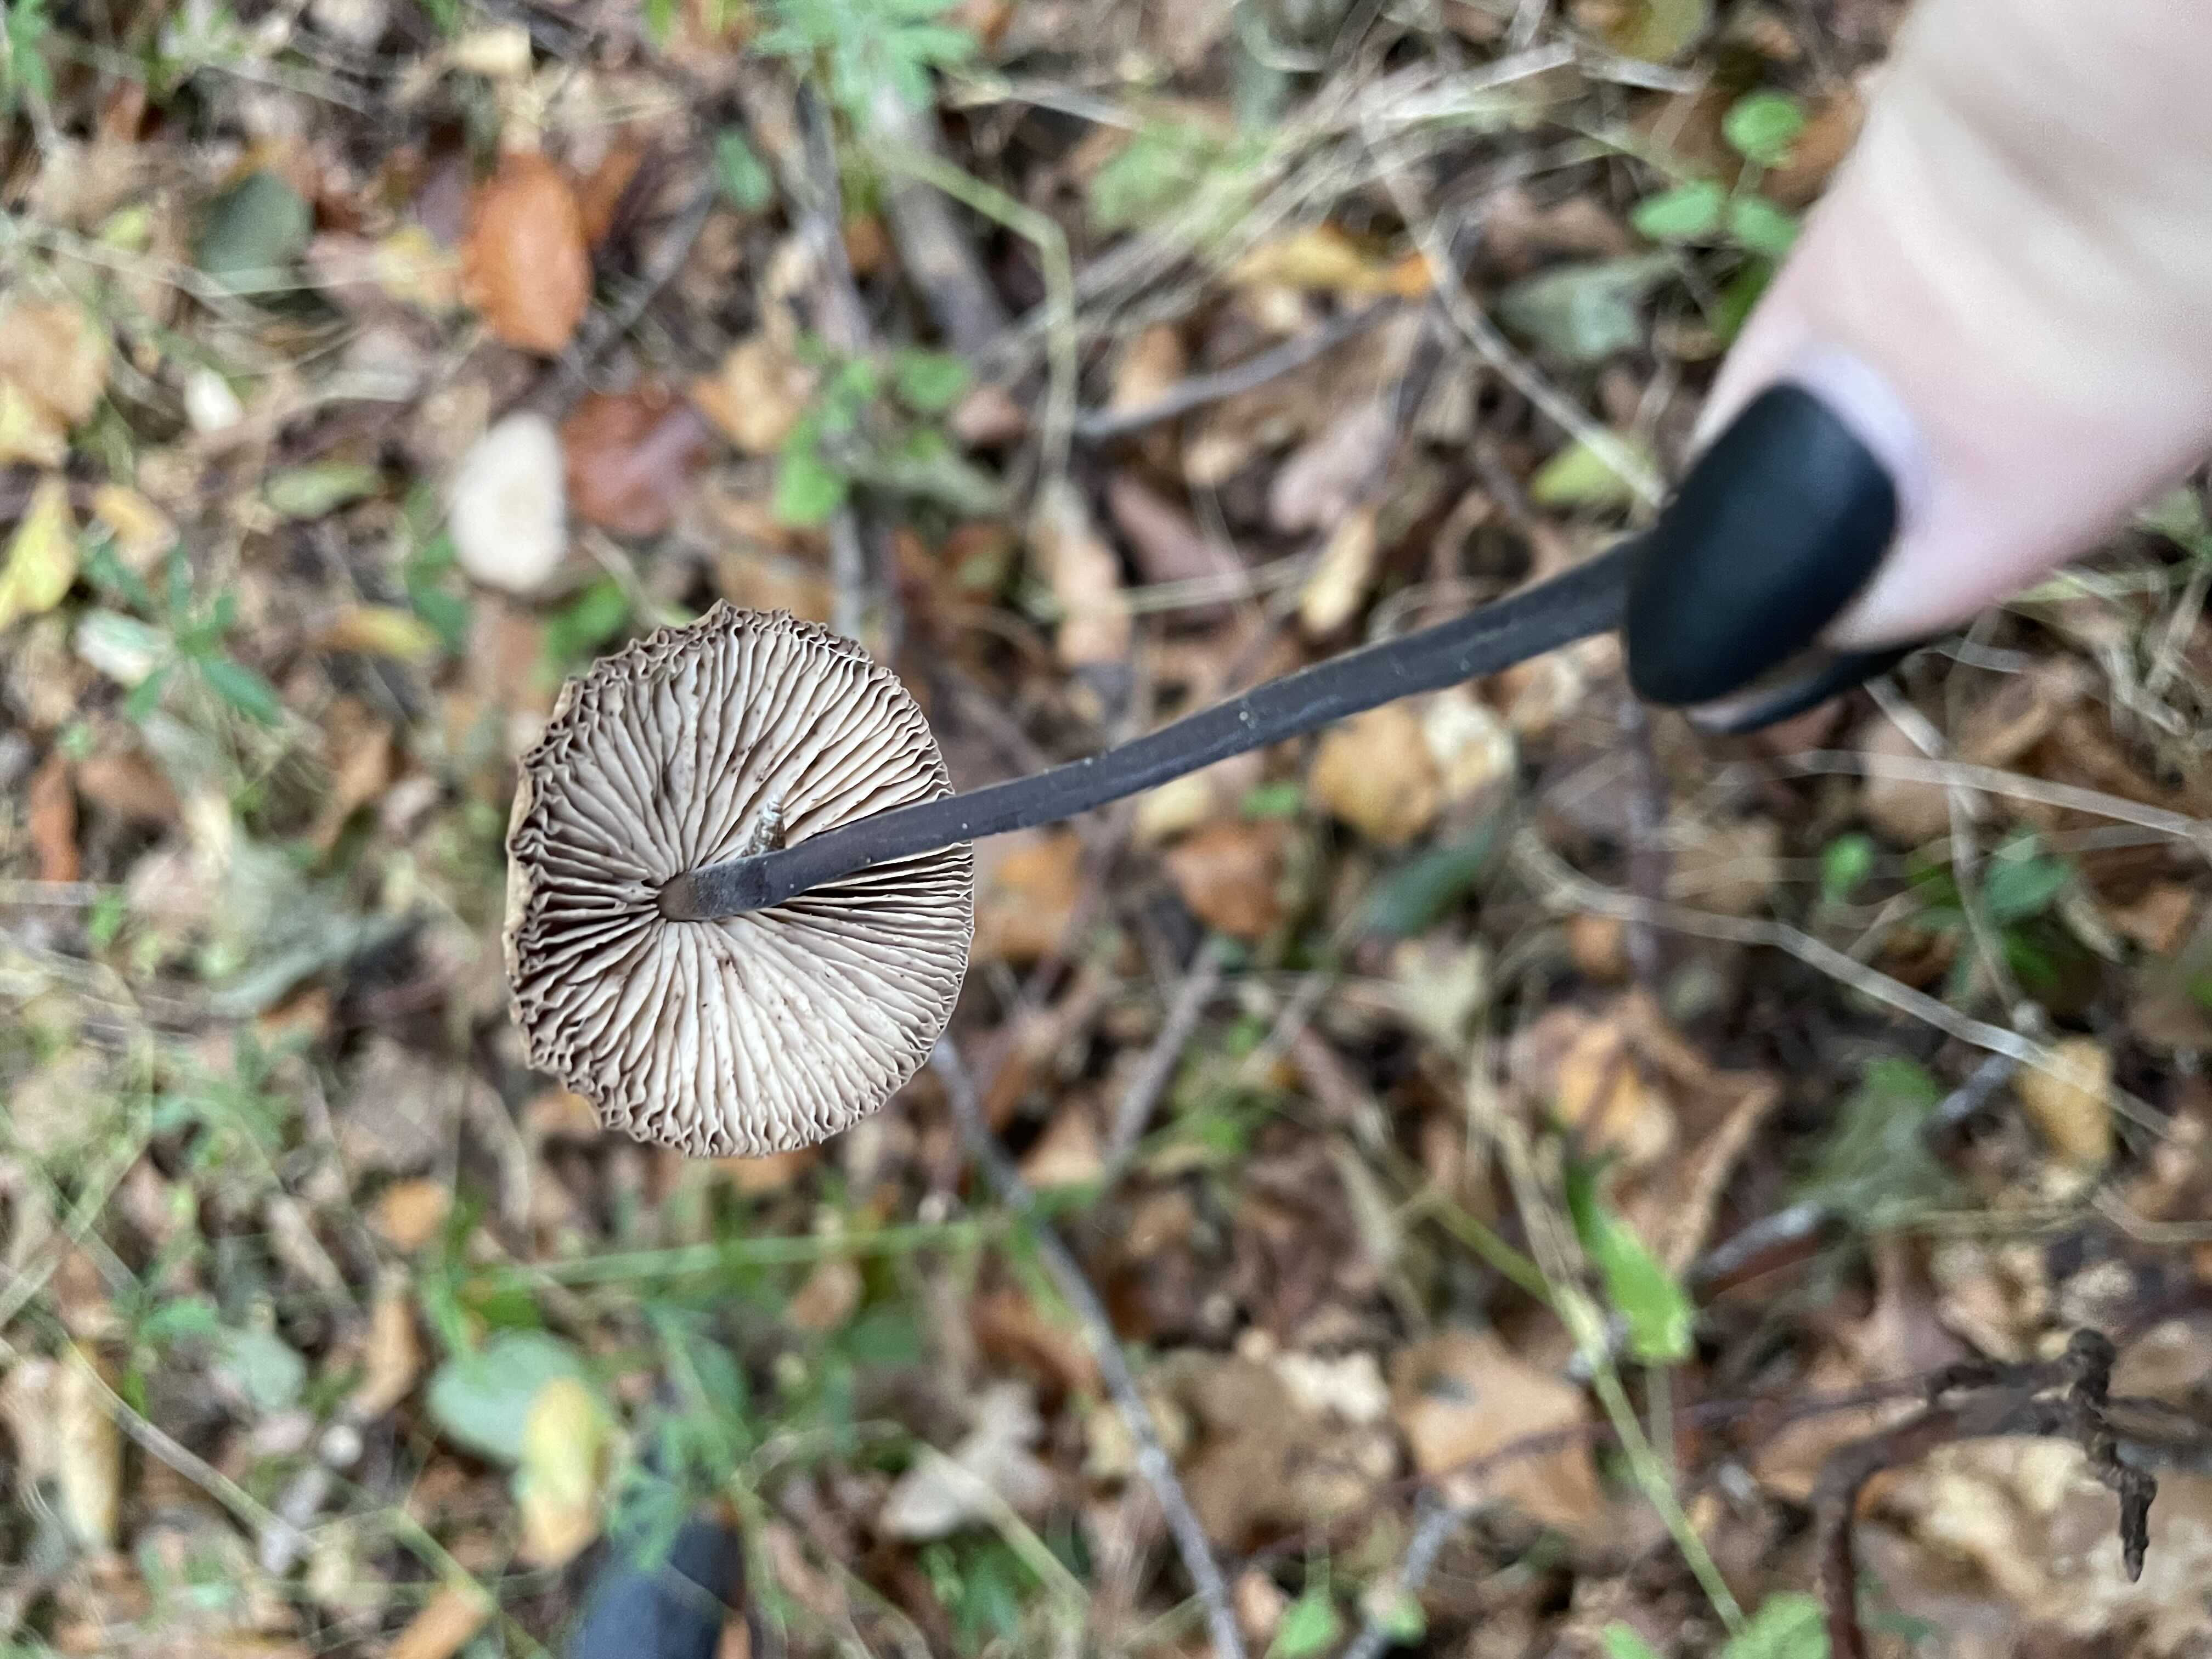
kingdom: Fungi
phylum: Basidiomycota
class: Agaricomycetes
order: Agaricales
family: Omphalotaceae
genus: Mycetinis
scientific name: Mycetinis alliaceus
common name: stor løghat
